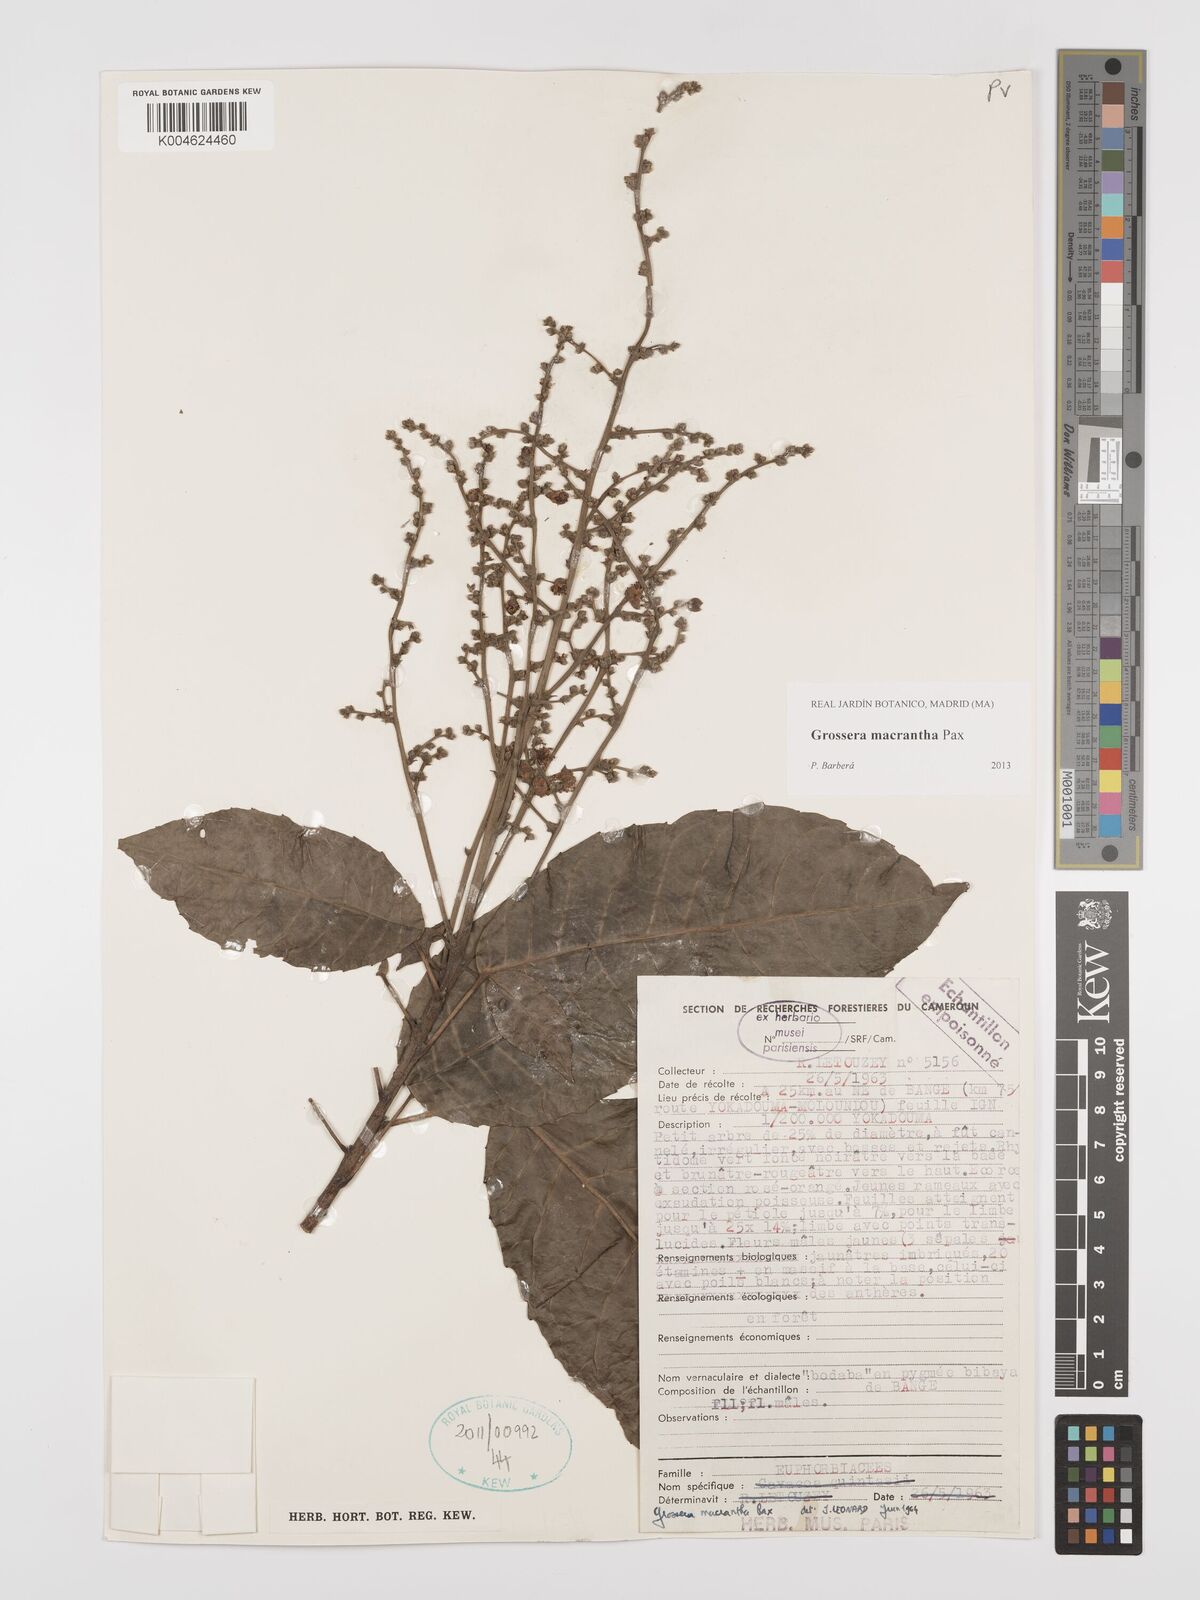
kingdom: Plantae
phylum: Tracheophyta
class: Magnoliopsida
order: Malpighiales
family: Euphorbiaceae
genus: Grossera
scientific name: Grossera macrantha
